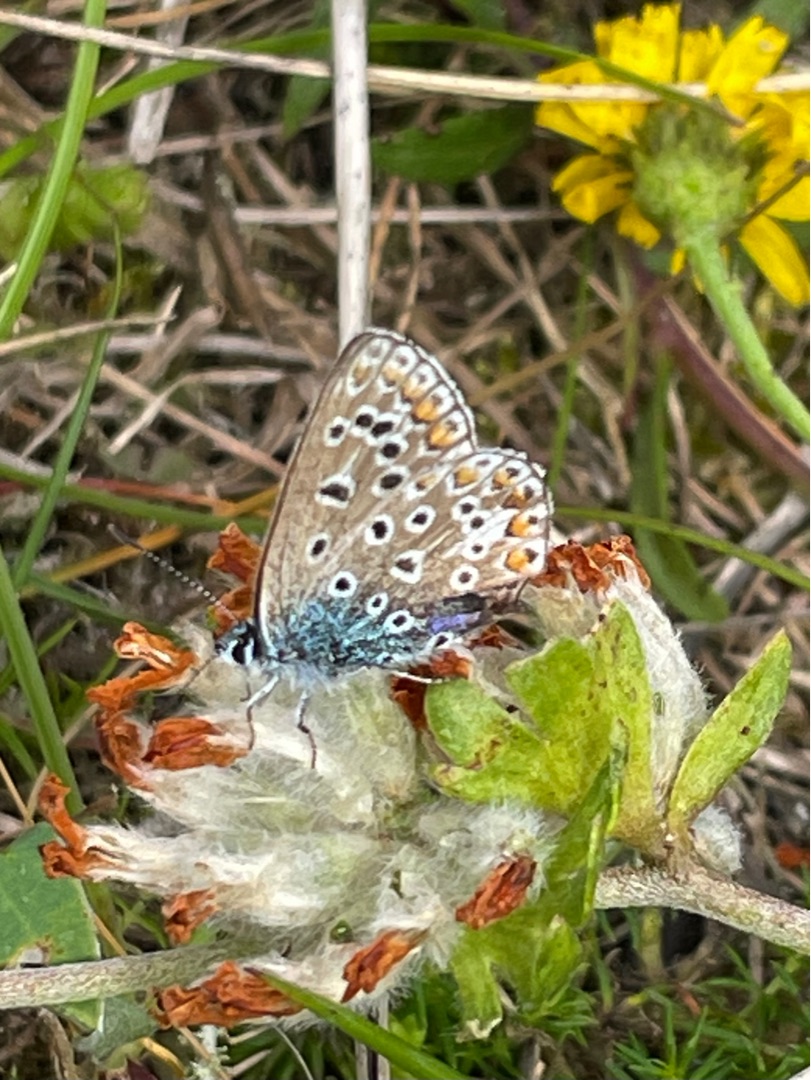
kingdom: Animalia
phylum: Arthropoda
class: Insecta
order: Lepidoptera
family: Lycaenidae
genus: Polyommatus
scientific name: Polyommatus icarus
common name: Almindelig blåfugl
